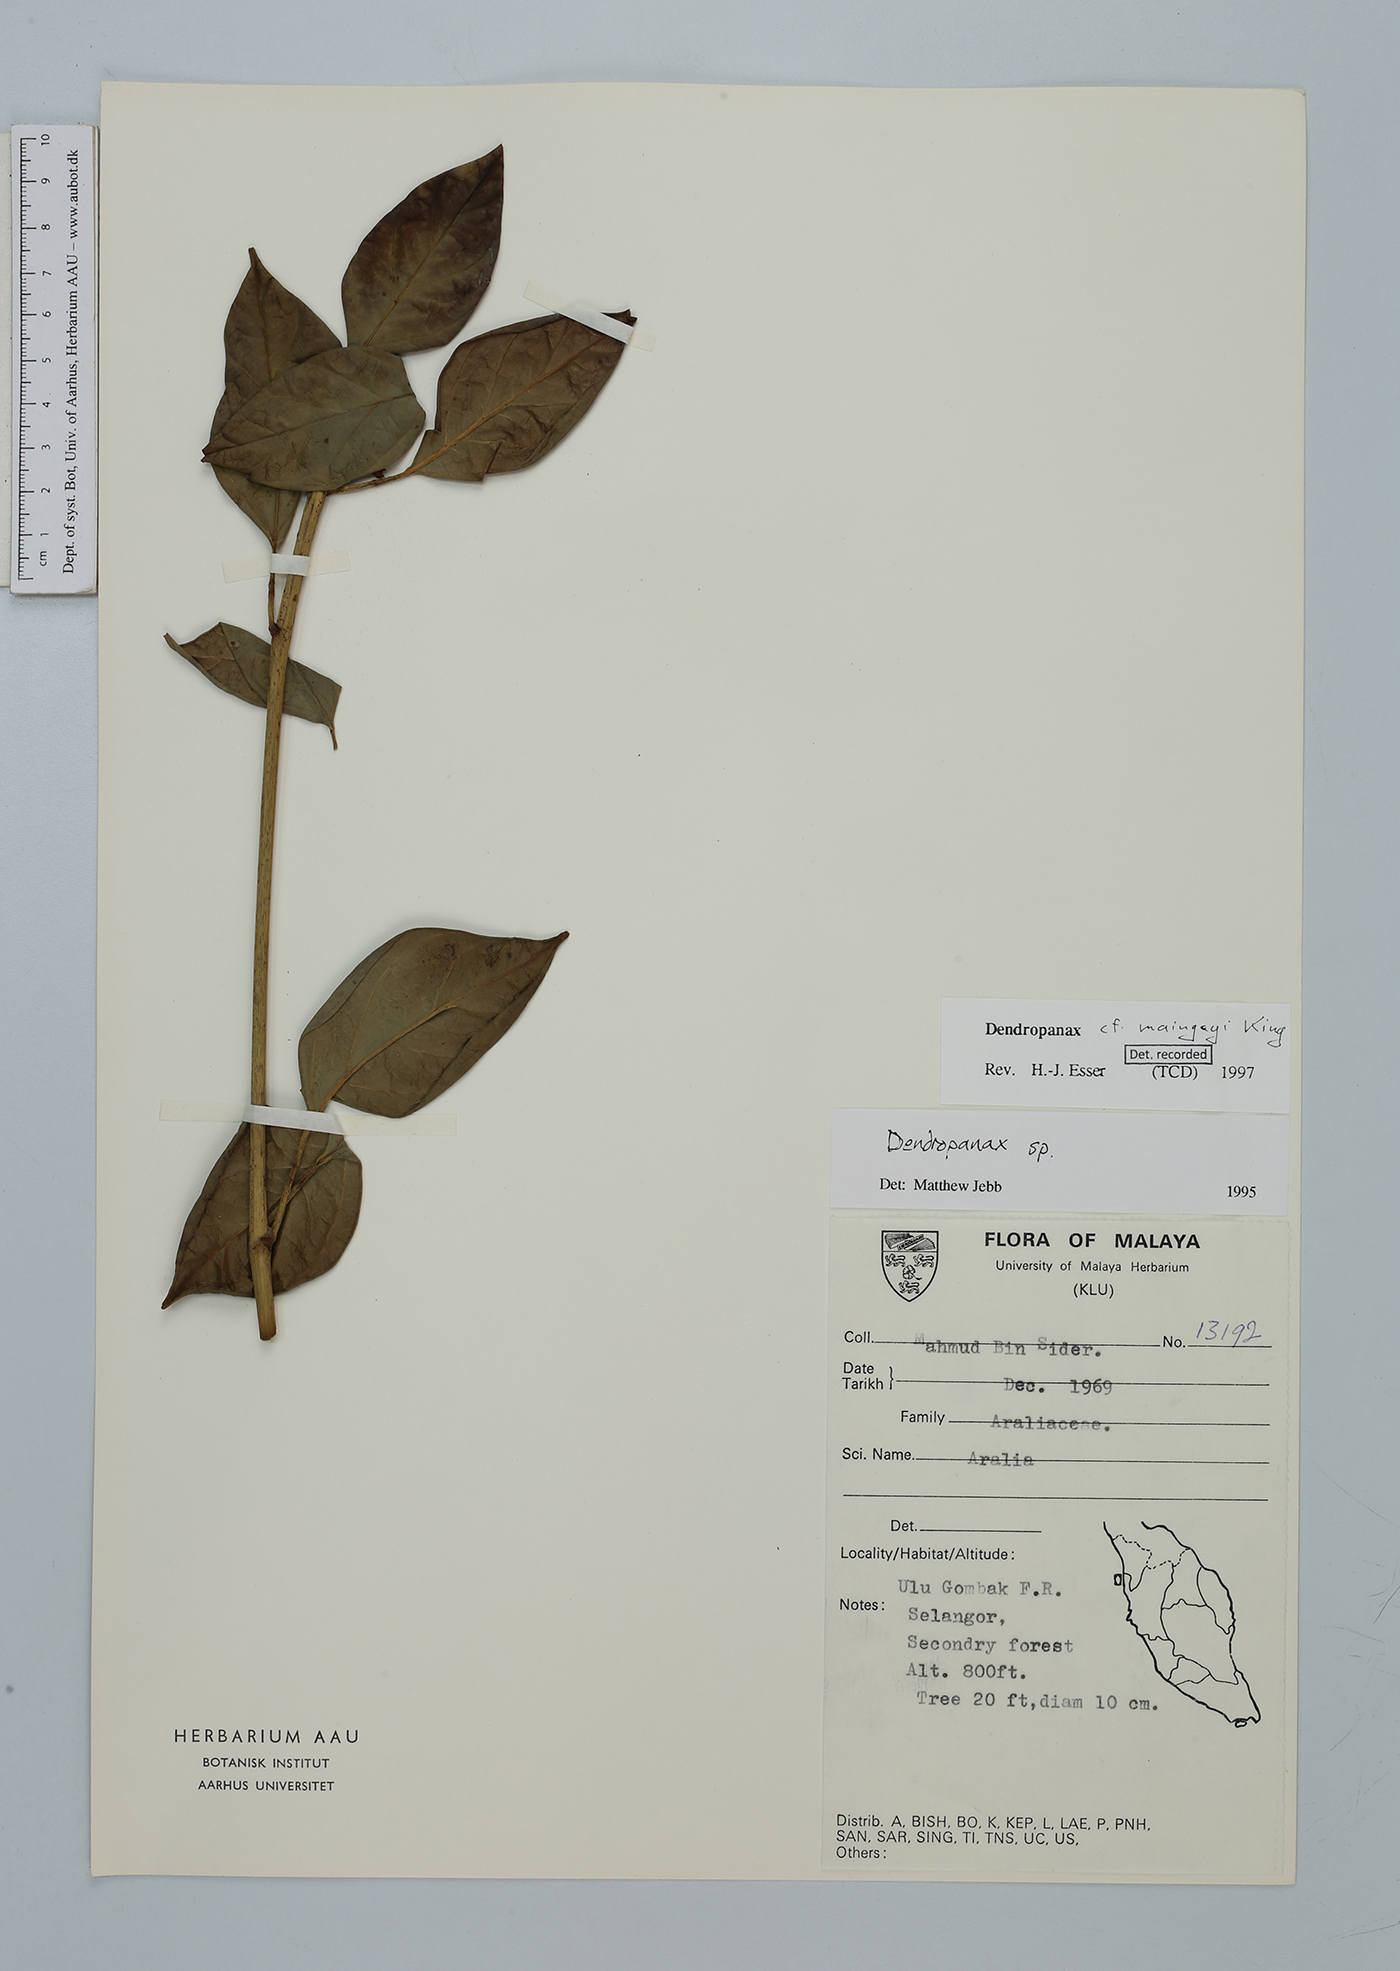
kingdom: Plantae
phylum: Tracheophyta
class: Magnoliopsida
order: Apiales
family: Araliaceae
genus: Dendropanax
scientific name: Dendropanax maingayi
